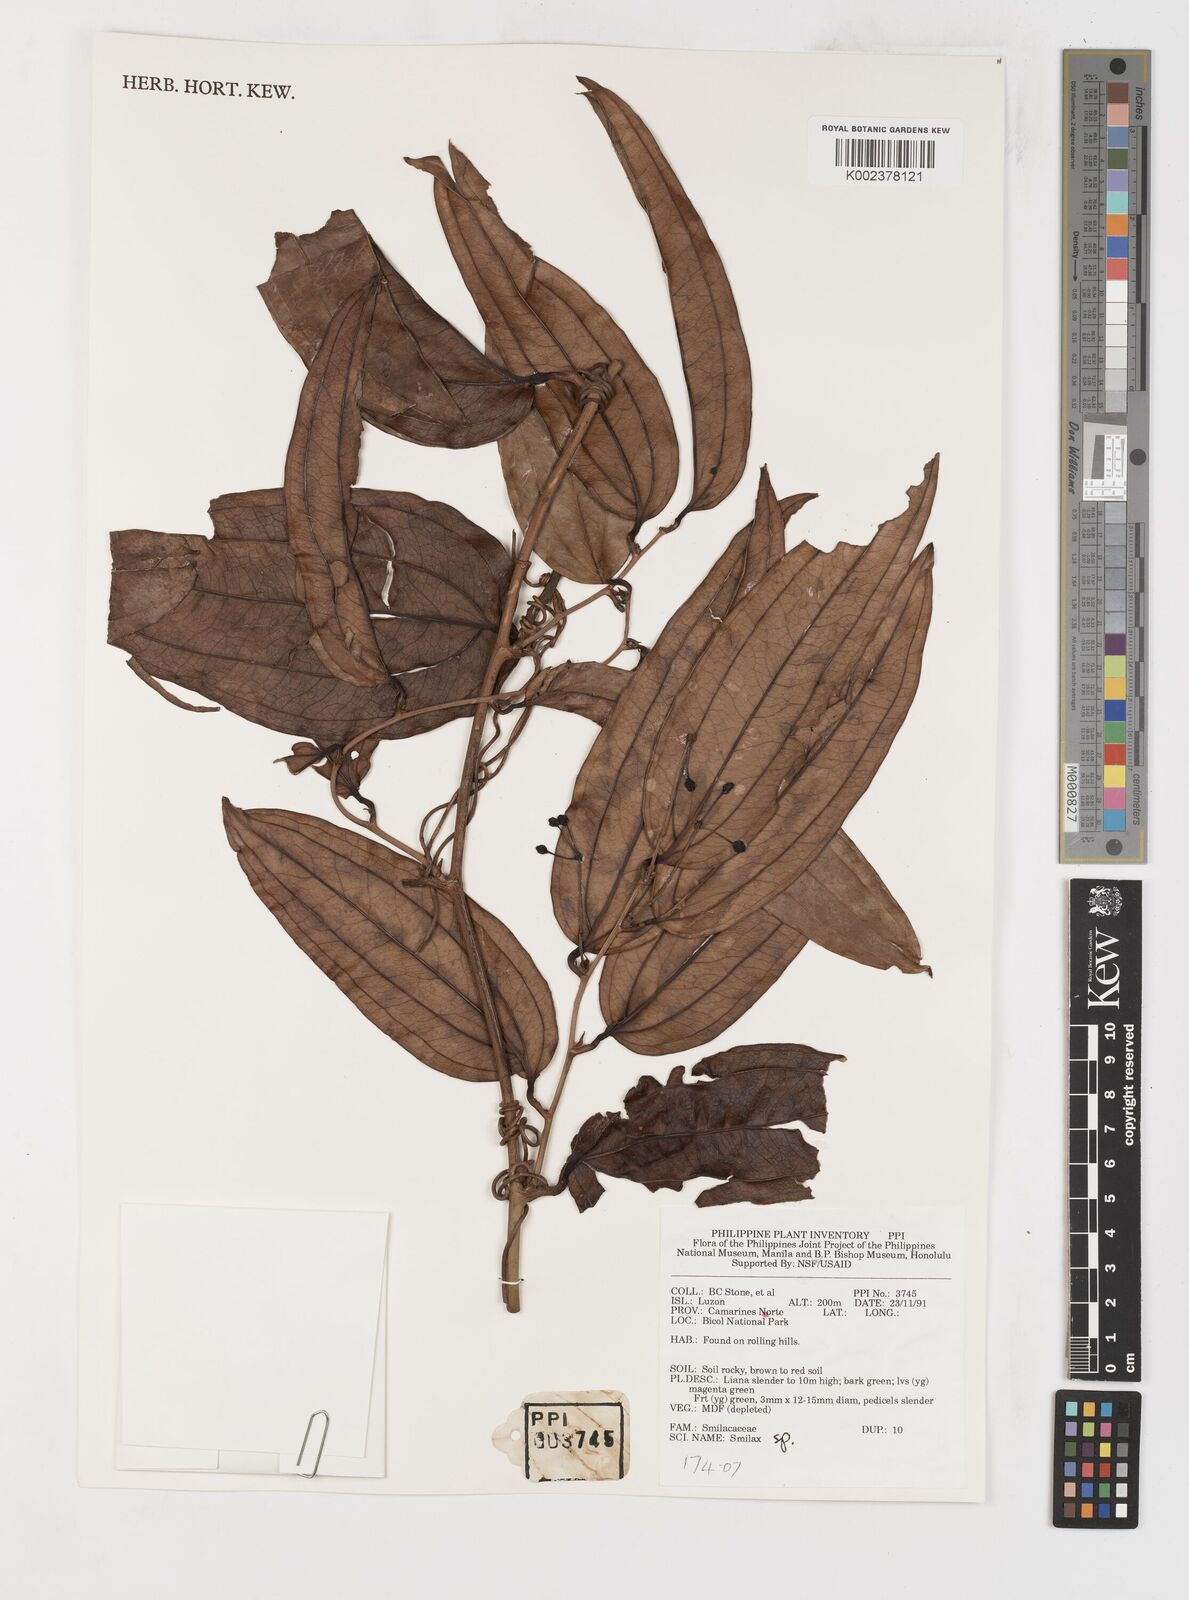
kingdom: Plantae
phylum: Tracheophyta
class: Liliopsida
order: Liliales
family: Smilacaceae
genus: Smilax
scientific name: Smilax
